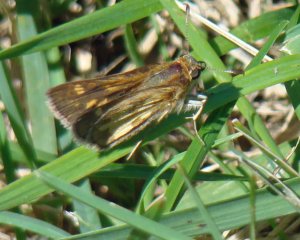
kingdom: Animalia
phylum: Arthropoda
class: Insecta
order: Lepidoptera
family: Hesperiidae
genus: Polites
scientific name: Polites coras
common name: Peck's Skipper
